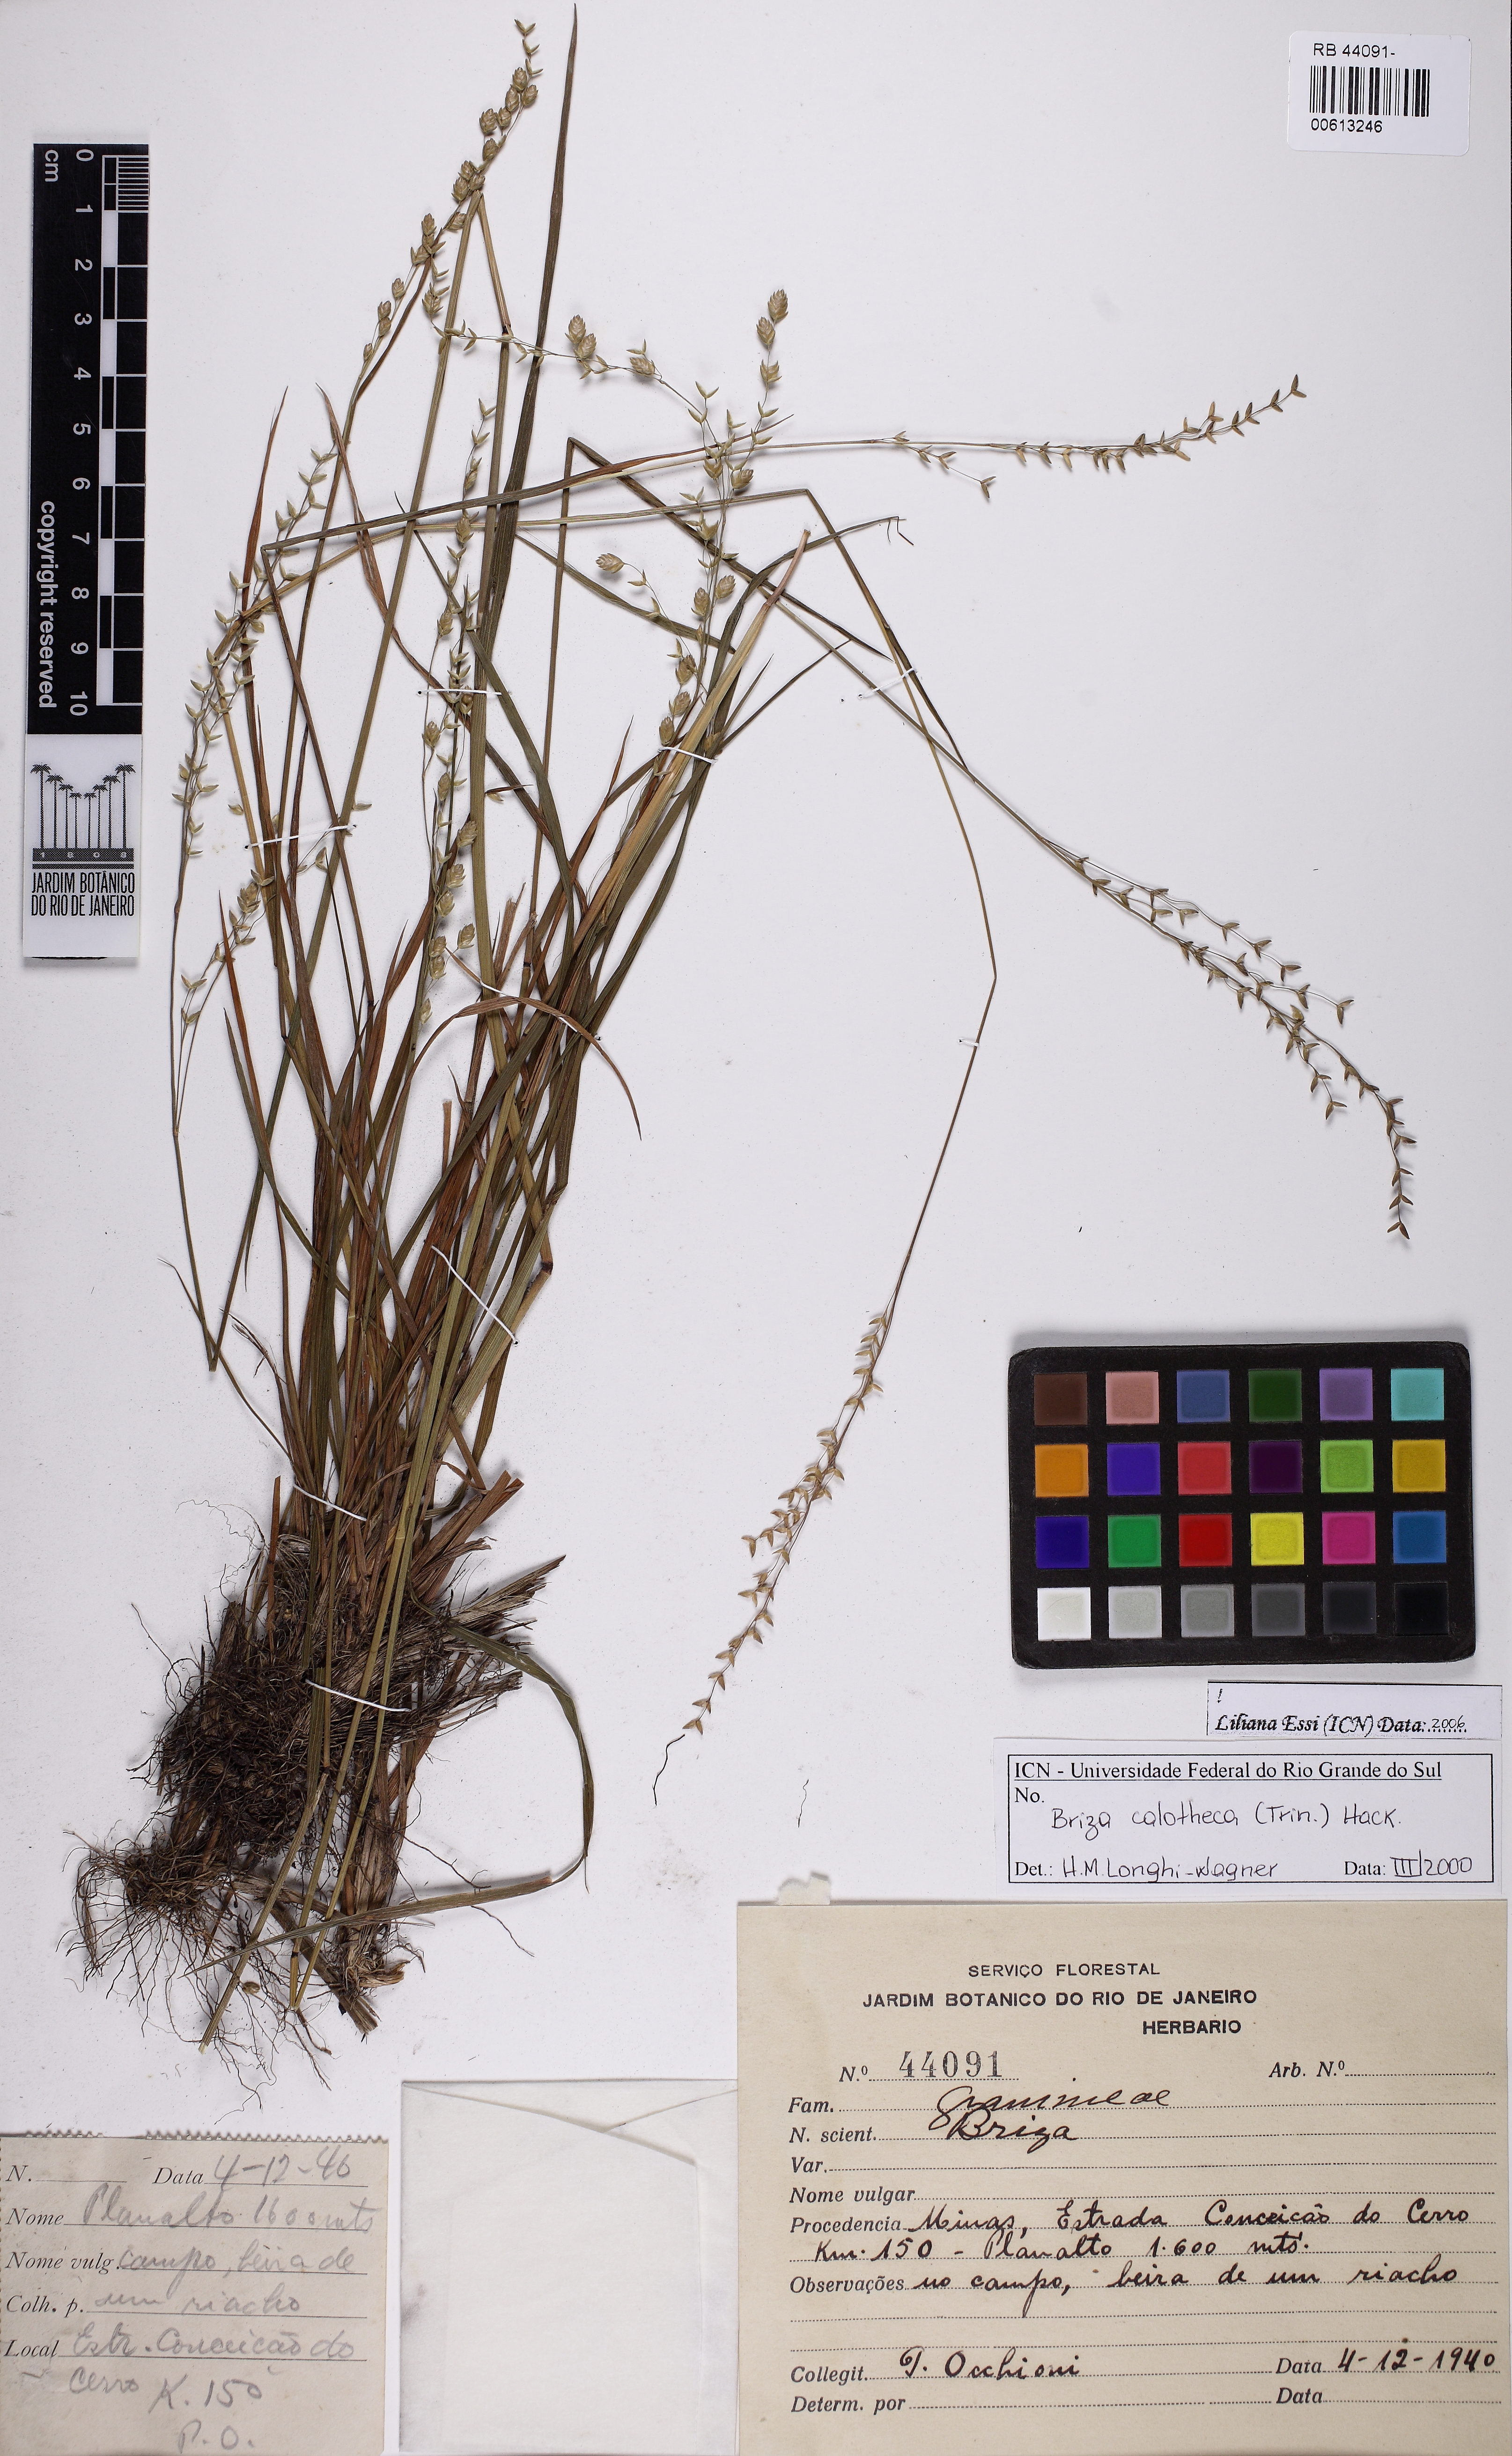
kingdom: Plantae
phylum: Tracheophyta
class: Liliopsida
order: Poales
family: Poaceae
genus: Poidium
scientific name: Poidium calotheca
